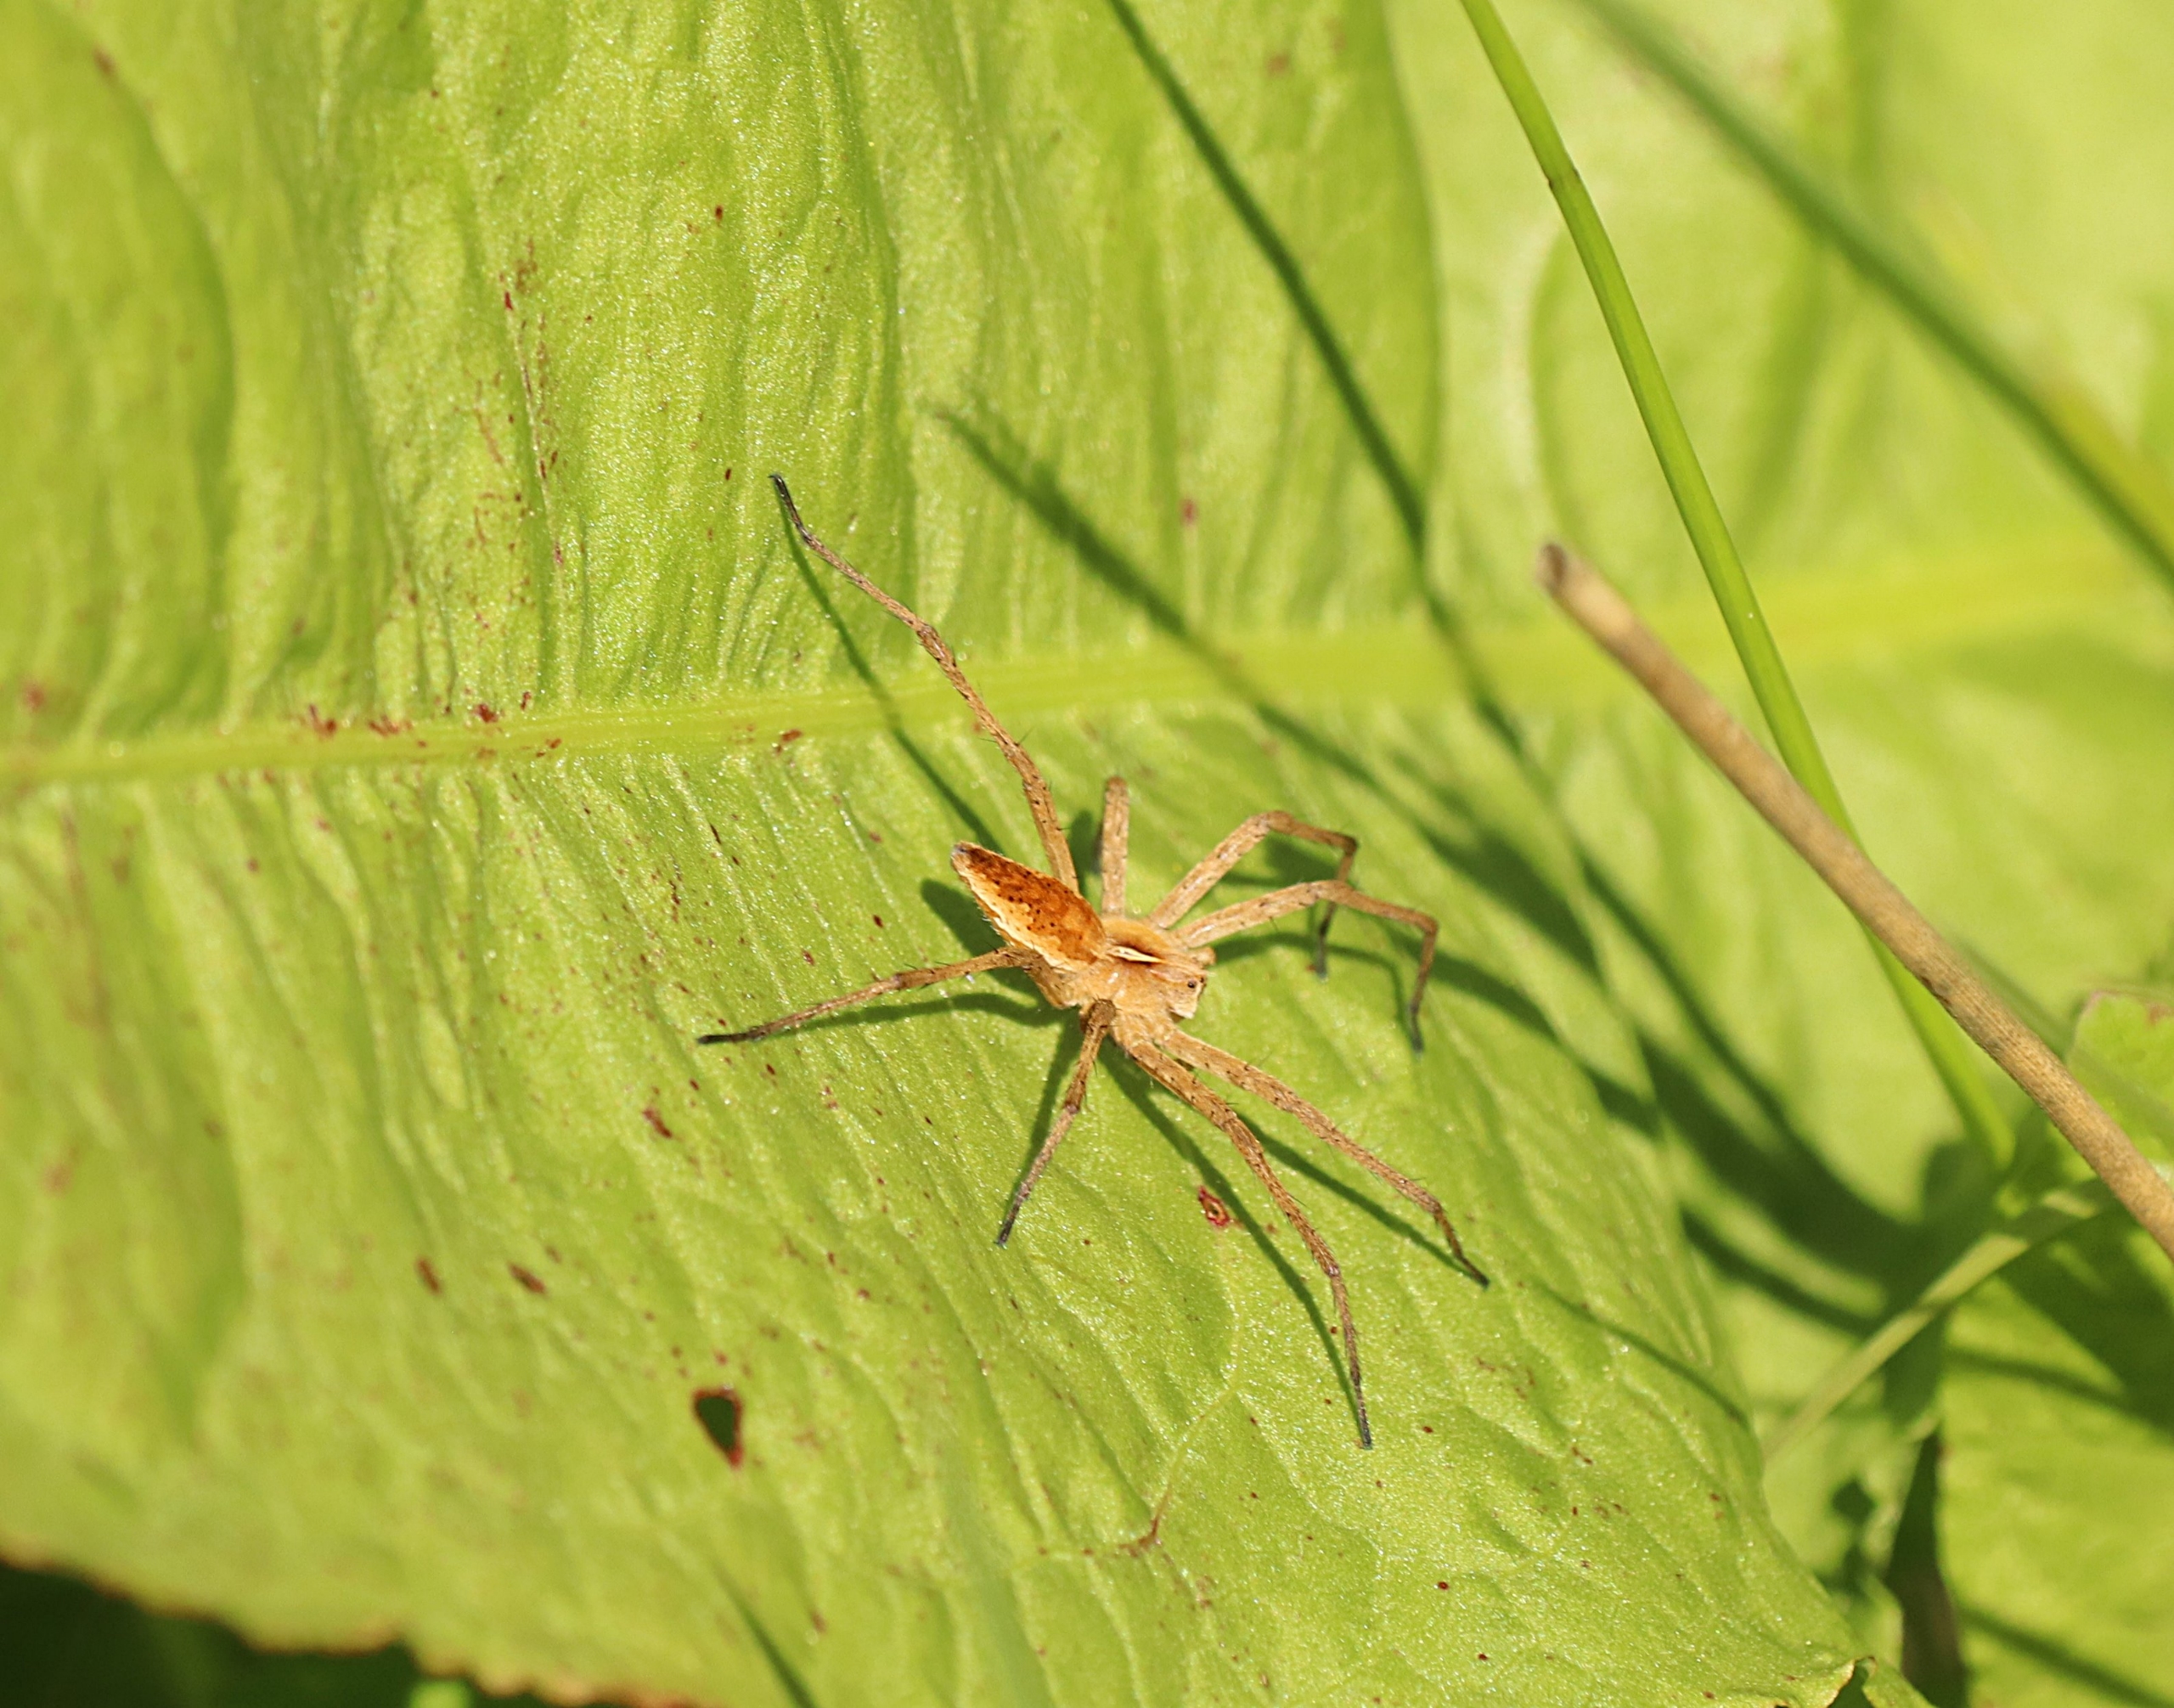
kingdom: Animalia
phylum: Arthropoda
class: Arachnida
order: Araneae
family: Pisauridae
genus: Pisaura
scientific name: Pisaura mirabilis
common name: Almindelig rovedderkop
